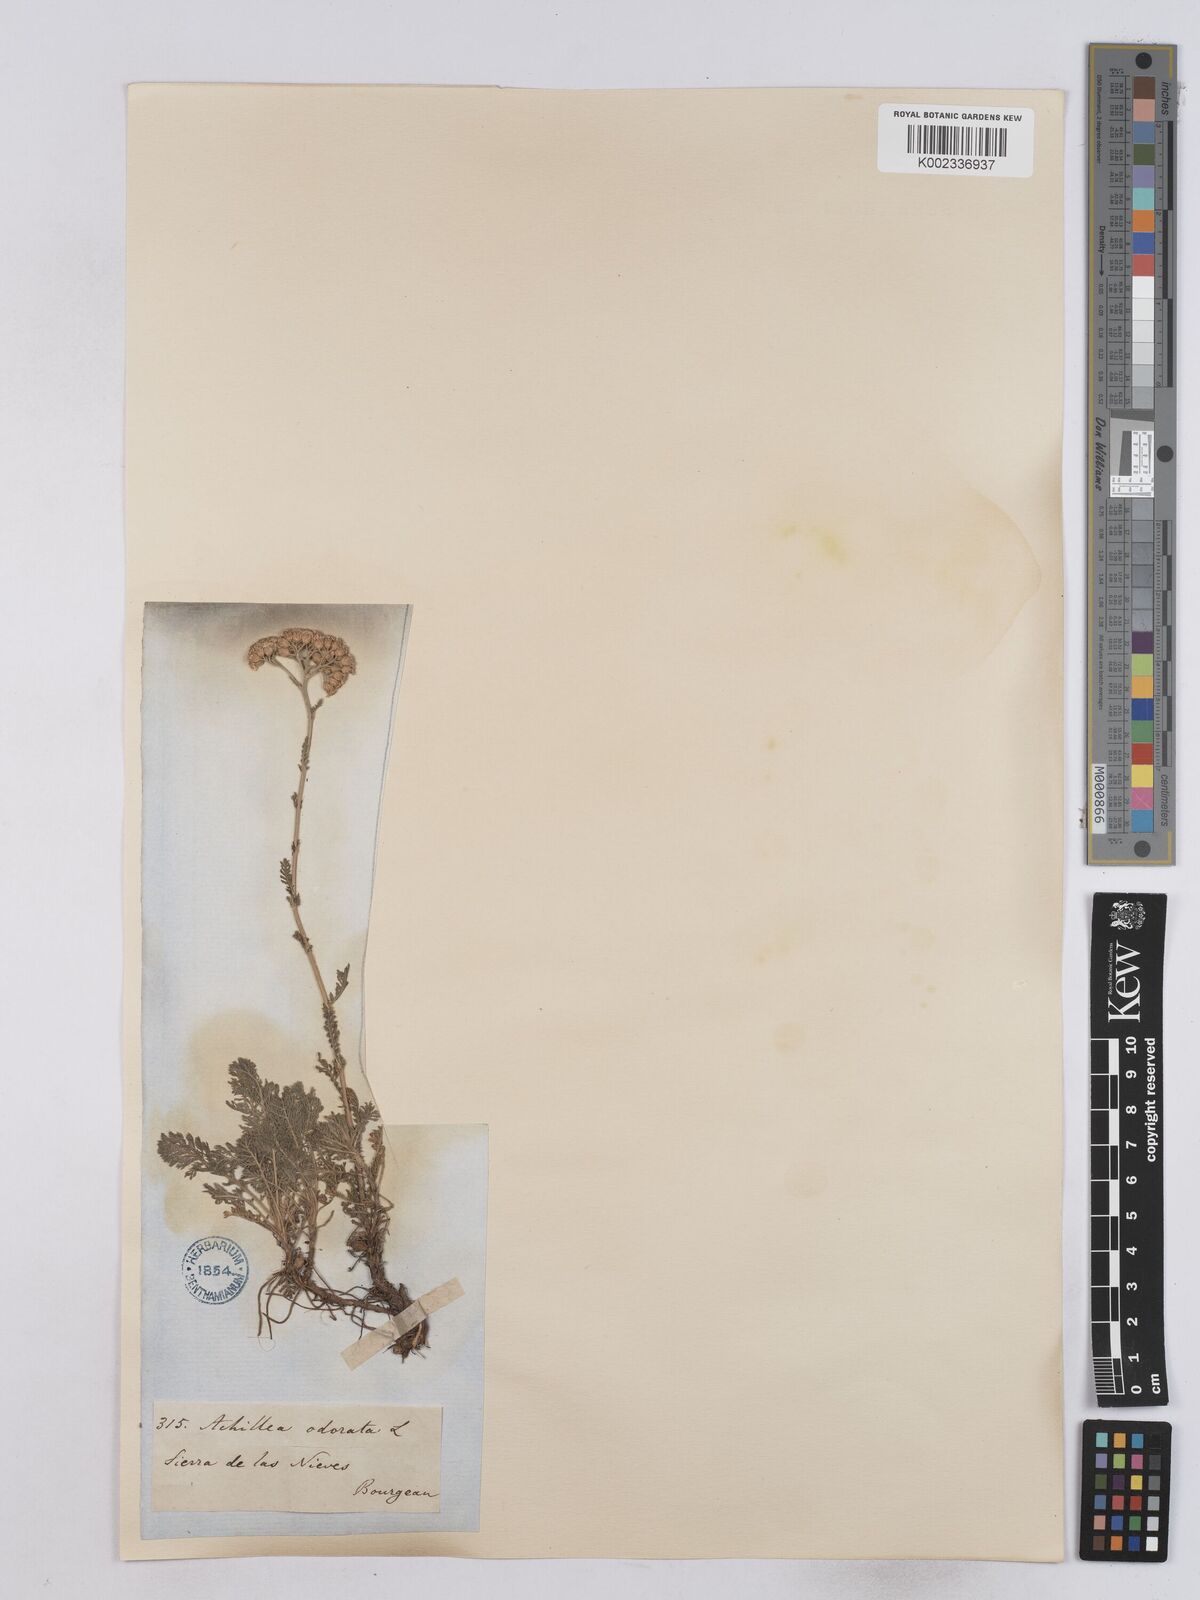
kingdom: Plantae
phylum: Tracheophyta
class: Magnoliopsida
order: Asterales
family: Asteraceae
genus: Achillea
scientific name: Achillea odorata
